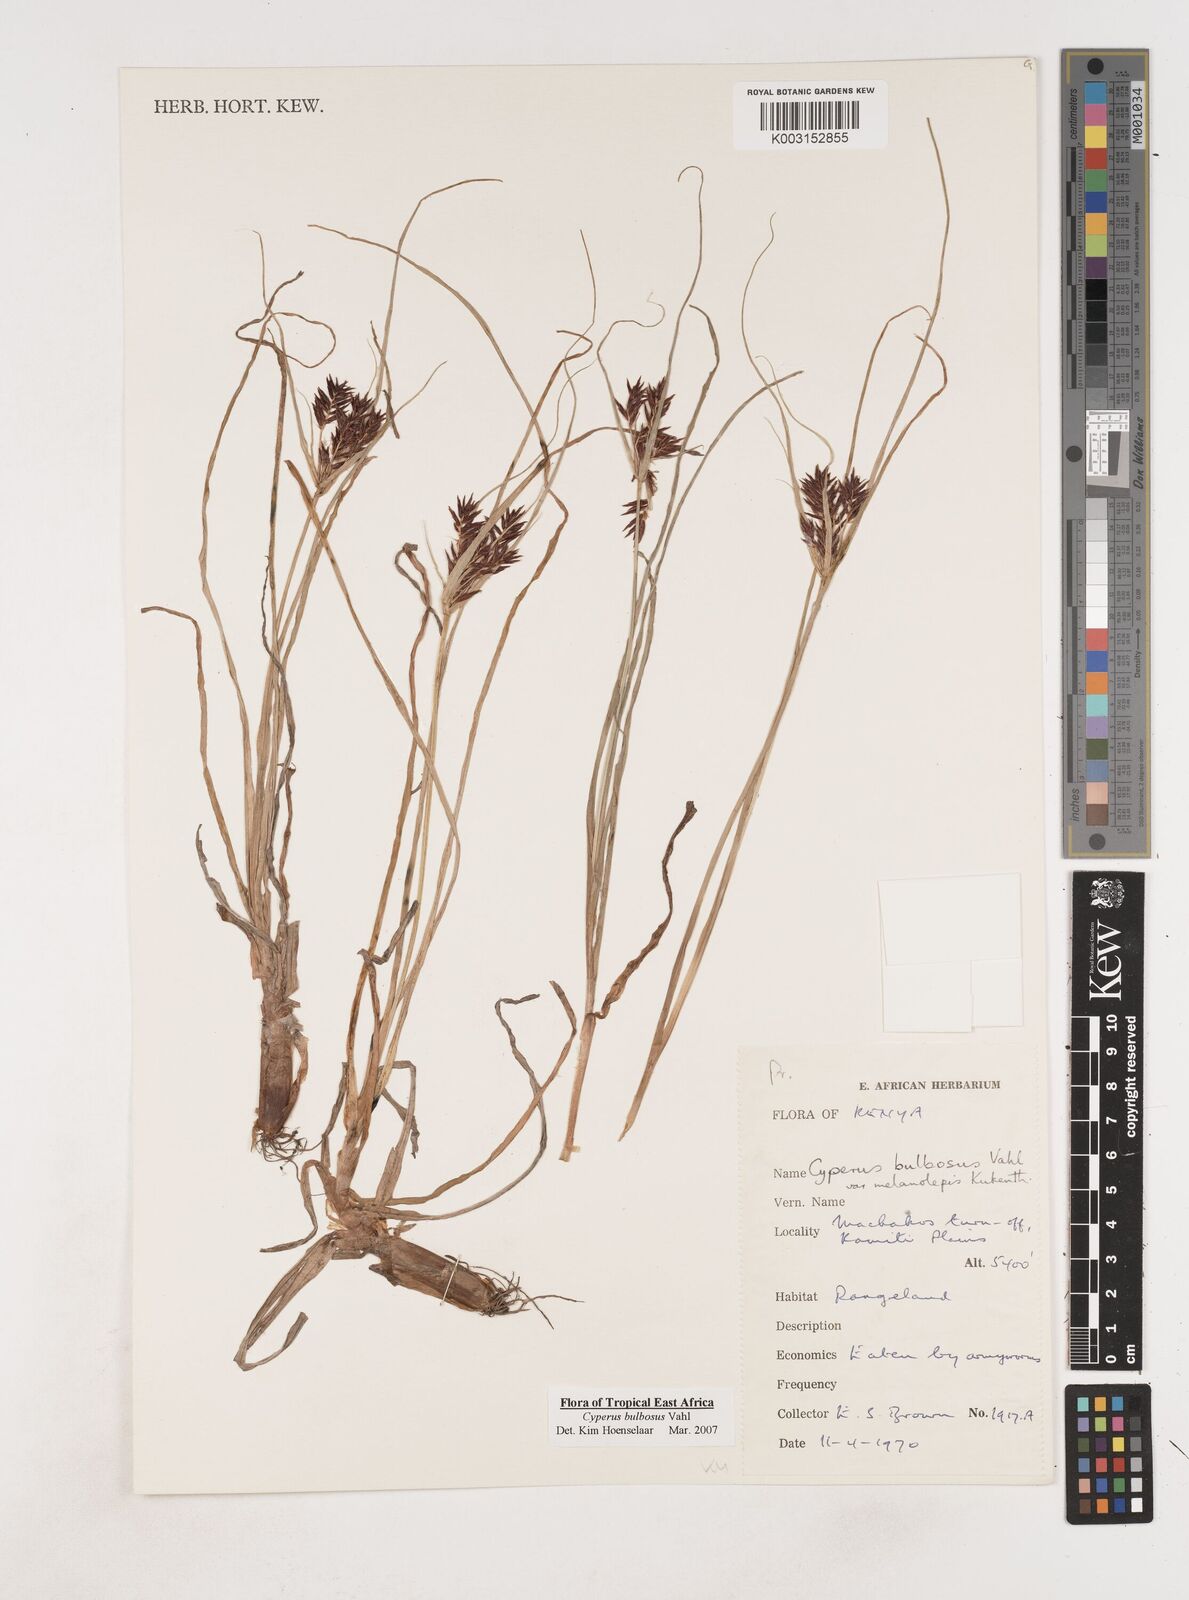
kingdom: Plantae
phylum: Tracheophyta
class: Liliopsida
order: Poales
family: Cyperaceae
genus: Cyperus
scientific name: Cyperus bulbosus
